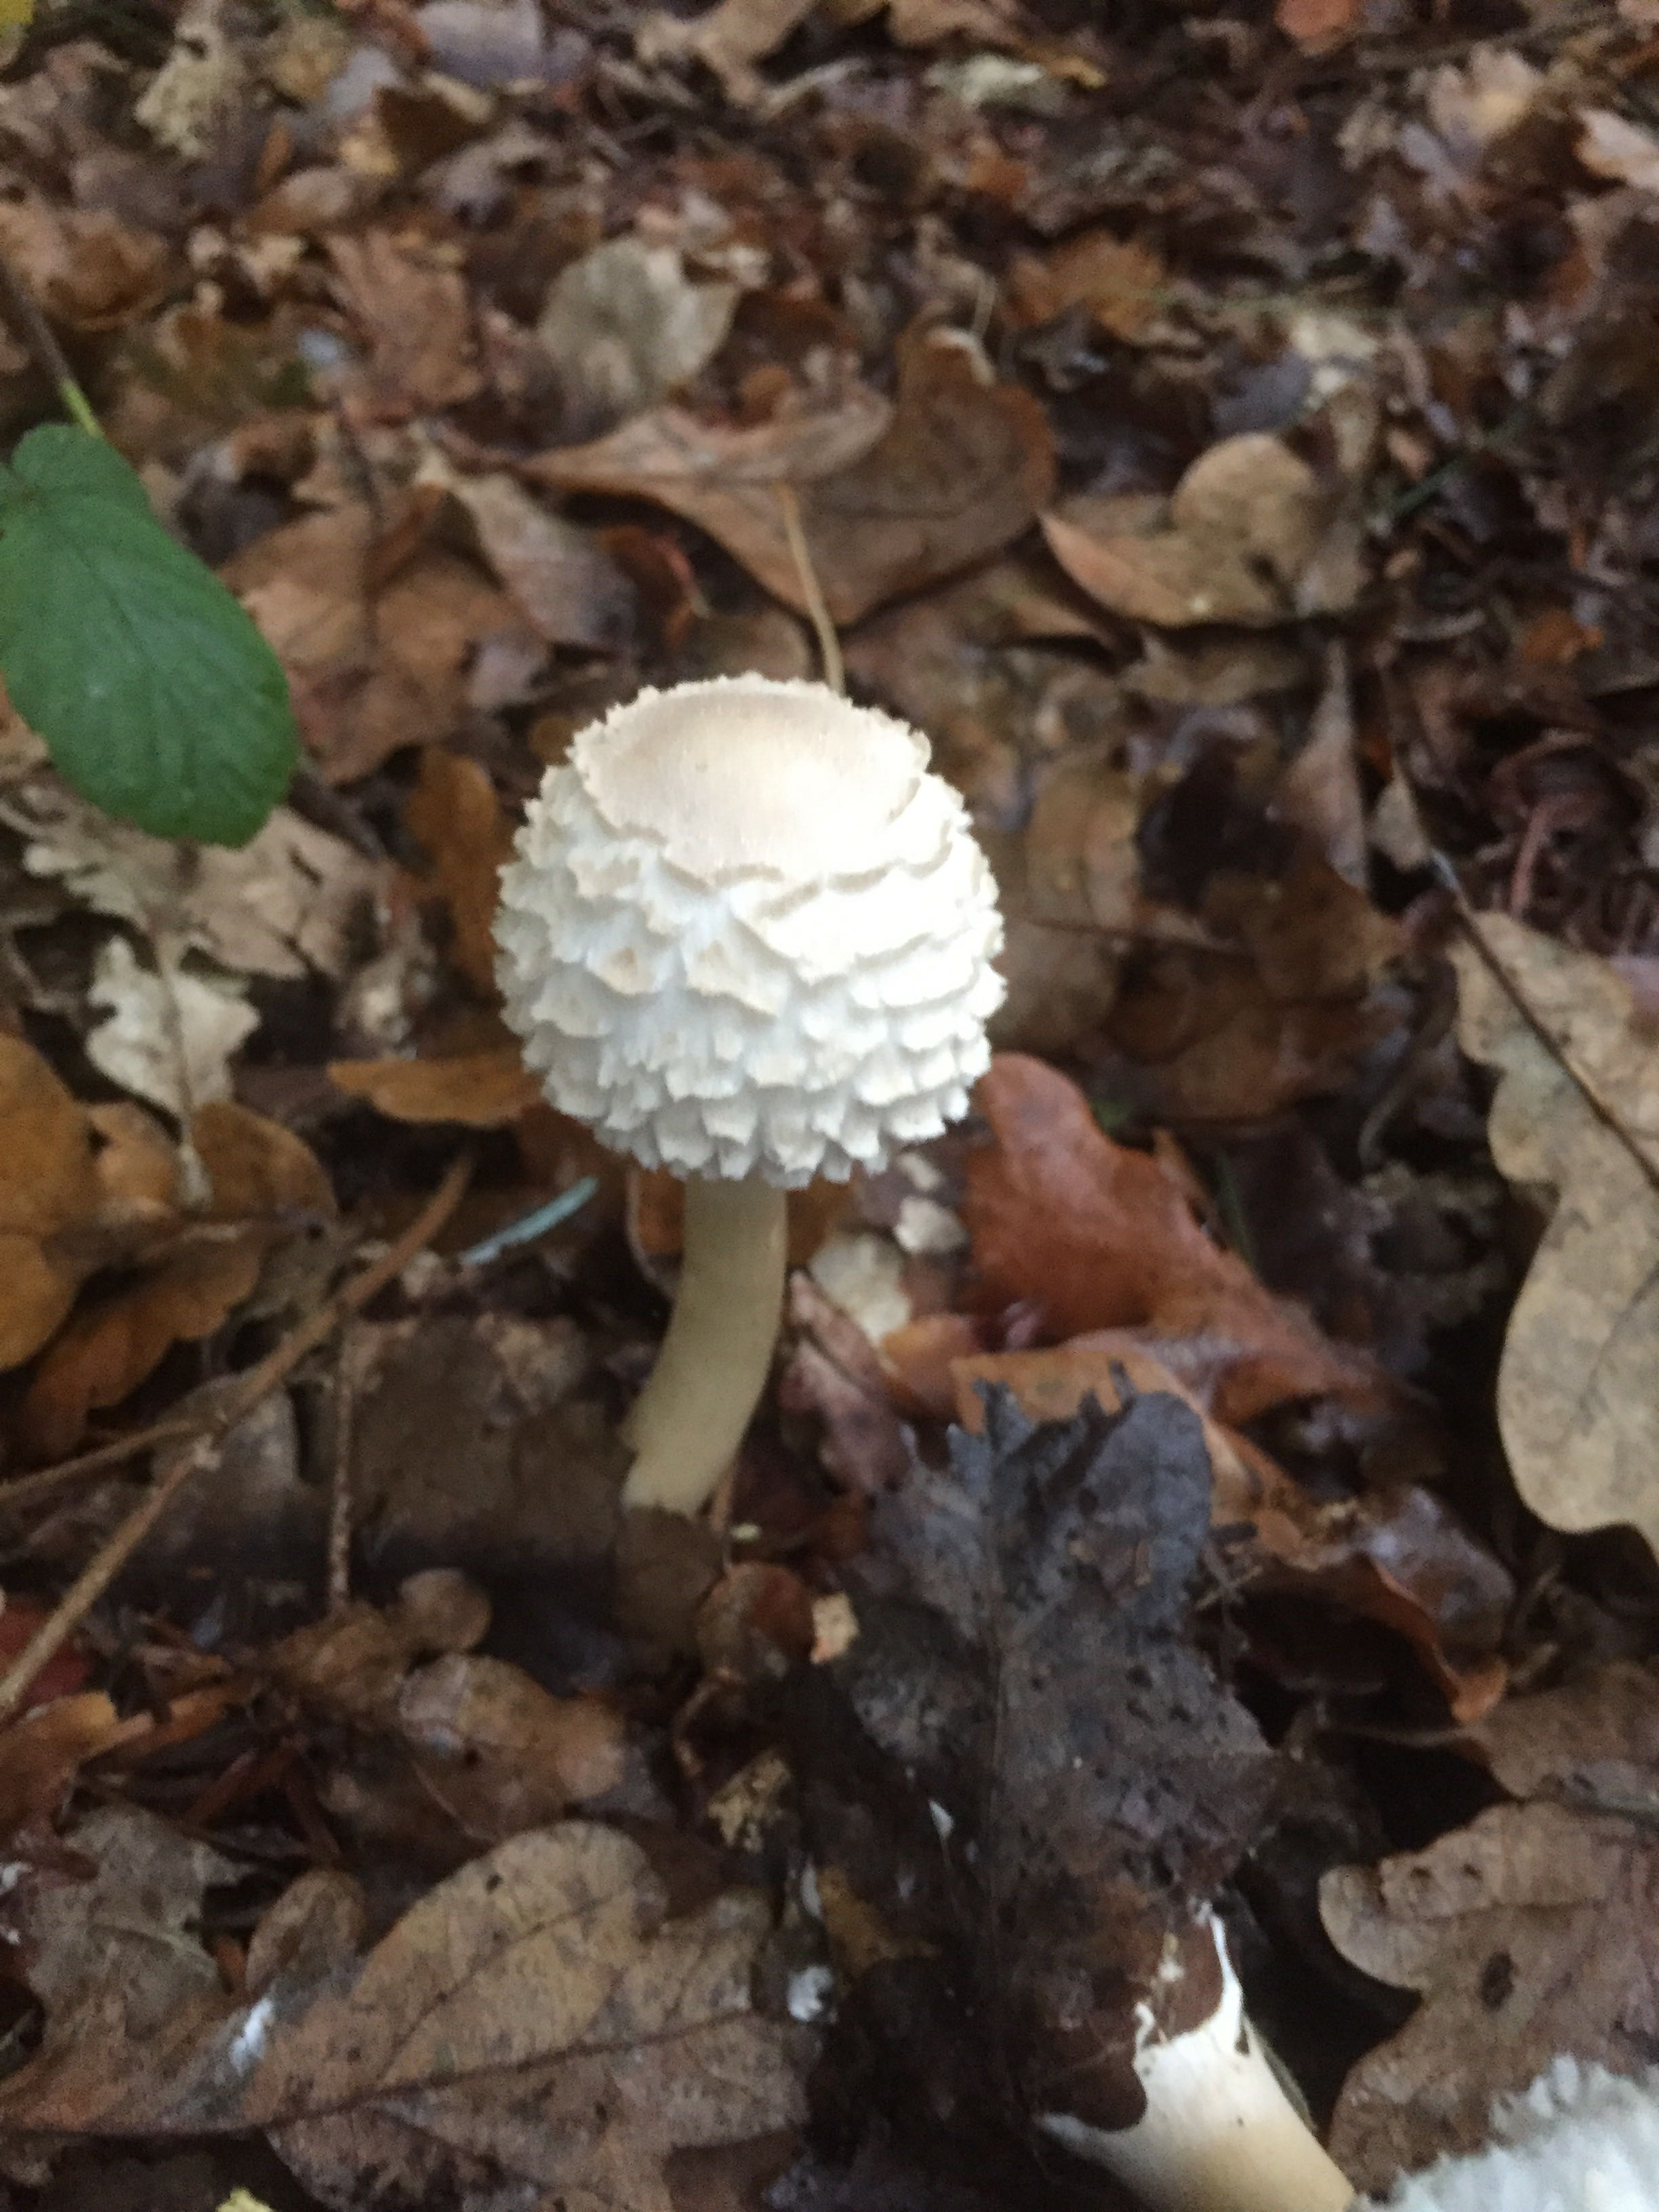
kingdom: Fungi
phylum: Basidiomycota
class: Agaricomycetes
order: Agaricales
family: Agaricaceae
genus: Leucoagaricus
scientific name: Leucoagaricus nympharum
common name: gran-silkehat
